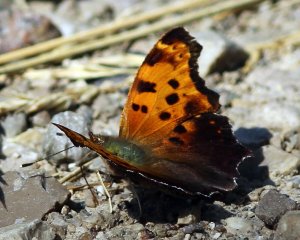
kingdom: Animalia
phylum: Arthropoda
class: Insecta
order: Lepidoptera
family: Nymphalidae
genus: Polygonia
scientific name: Polygonia comma
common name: Eastern Comma
